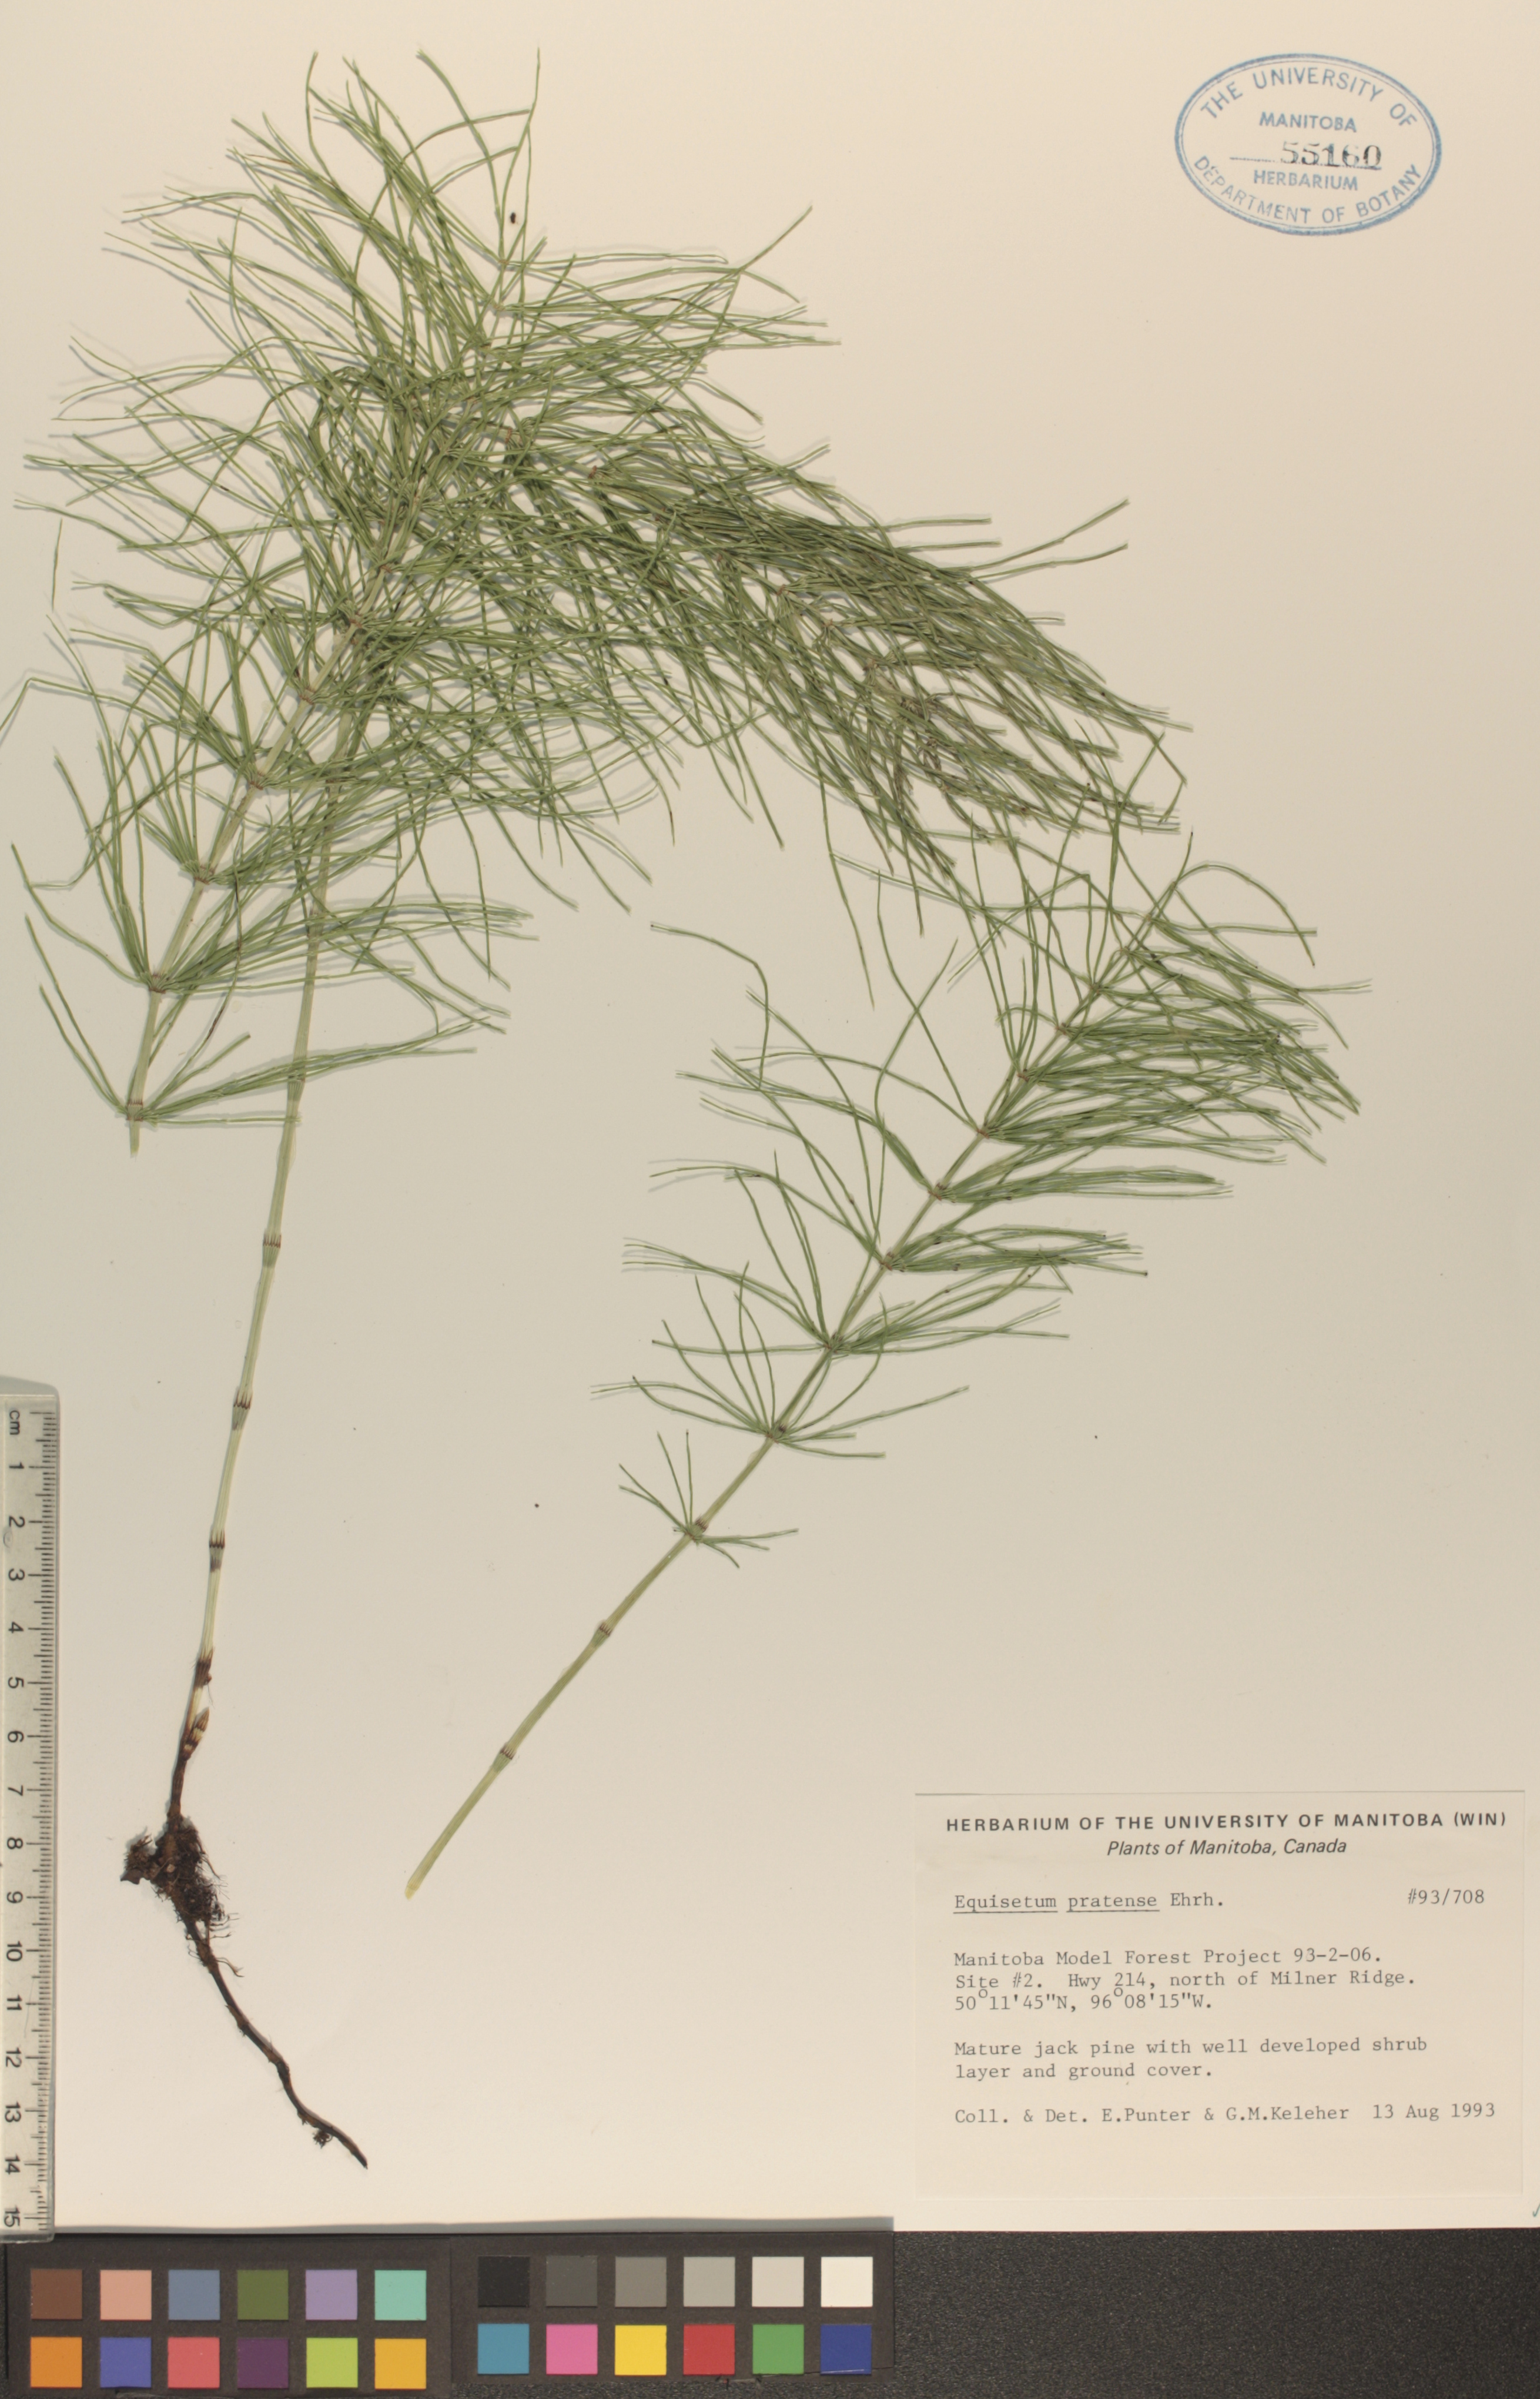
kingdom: Plantae
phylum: Tracheophyta
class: Polypodiopsida
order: Equisetales
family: Equisetaceae
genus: Equisetum
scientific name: Equisetum pratense
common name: Meadow horsetail
